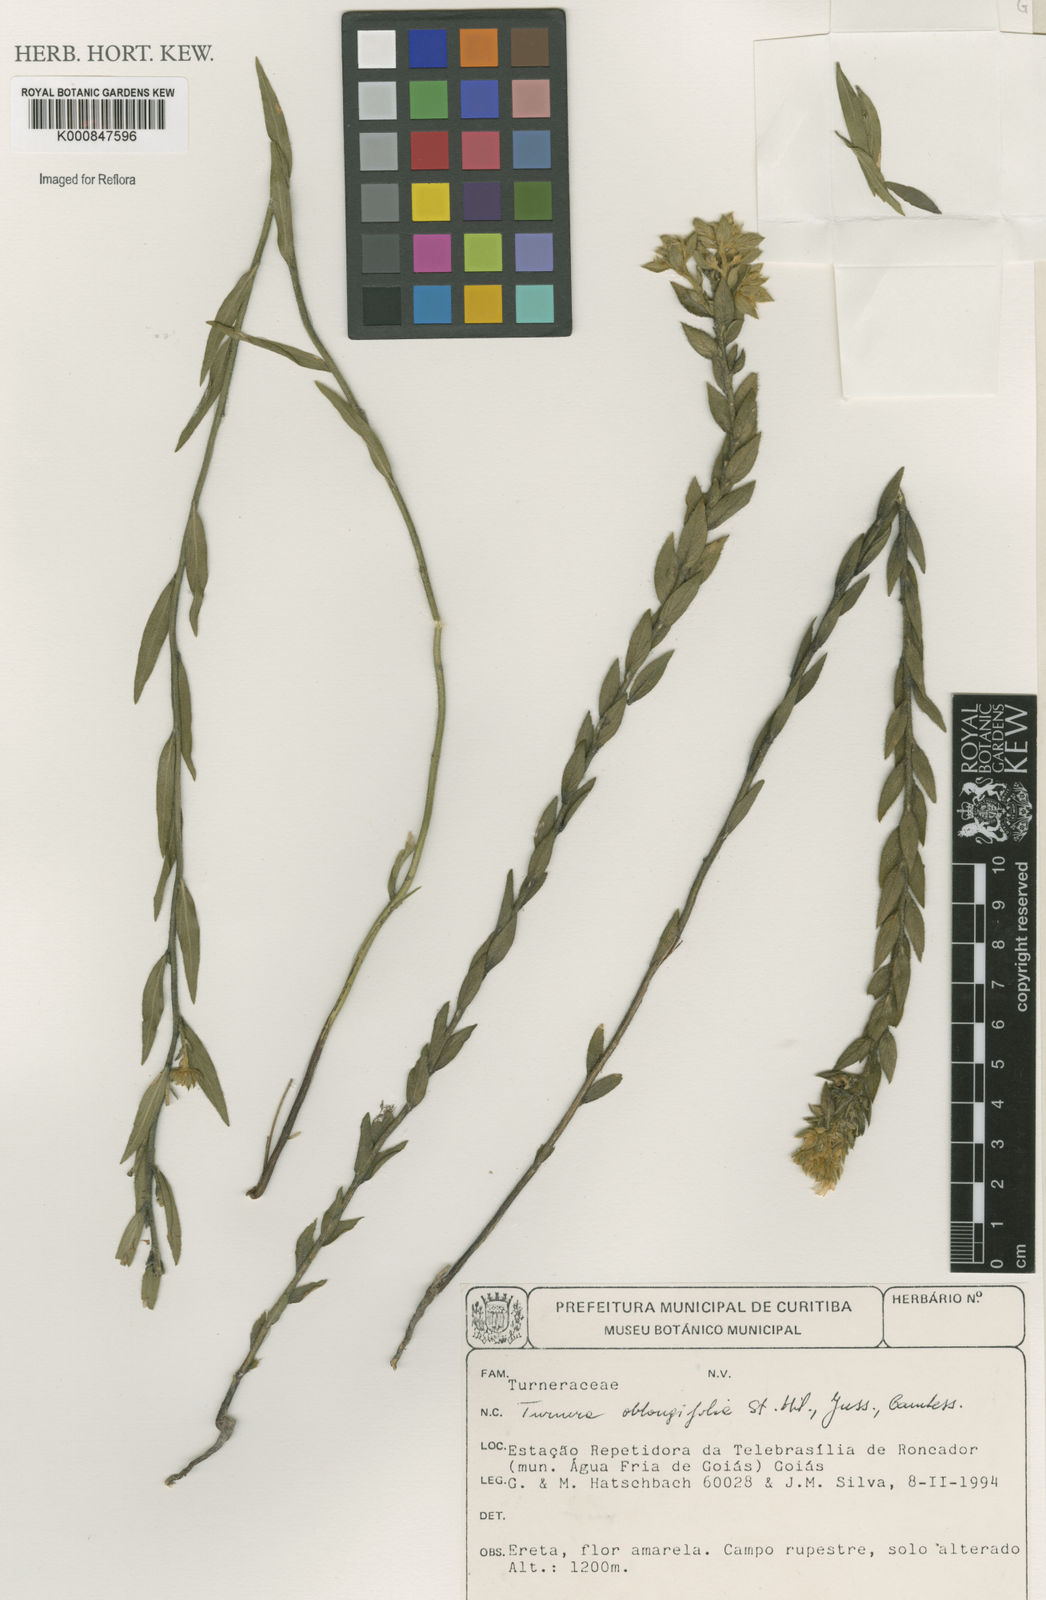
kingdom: Plantae
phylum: Tracheophyta
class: Magnoliopsida
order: Malpighiales
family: Turneraceae
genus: Turnera
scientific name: Turnera oblongifolia
